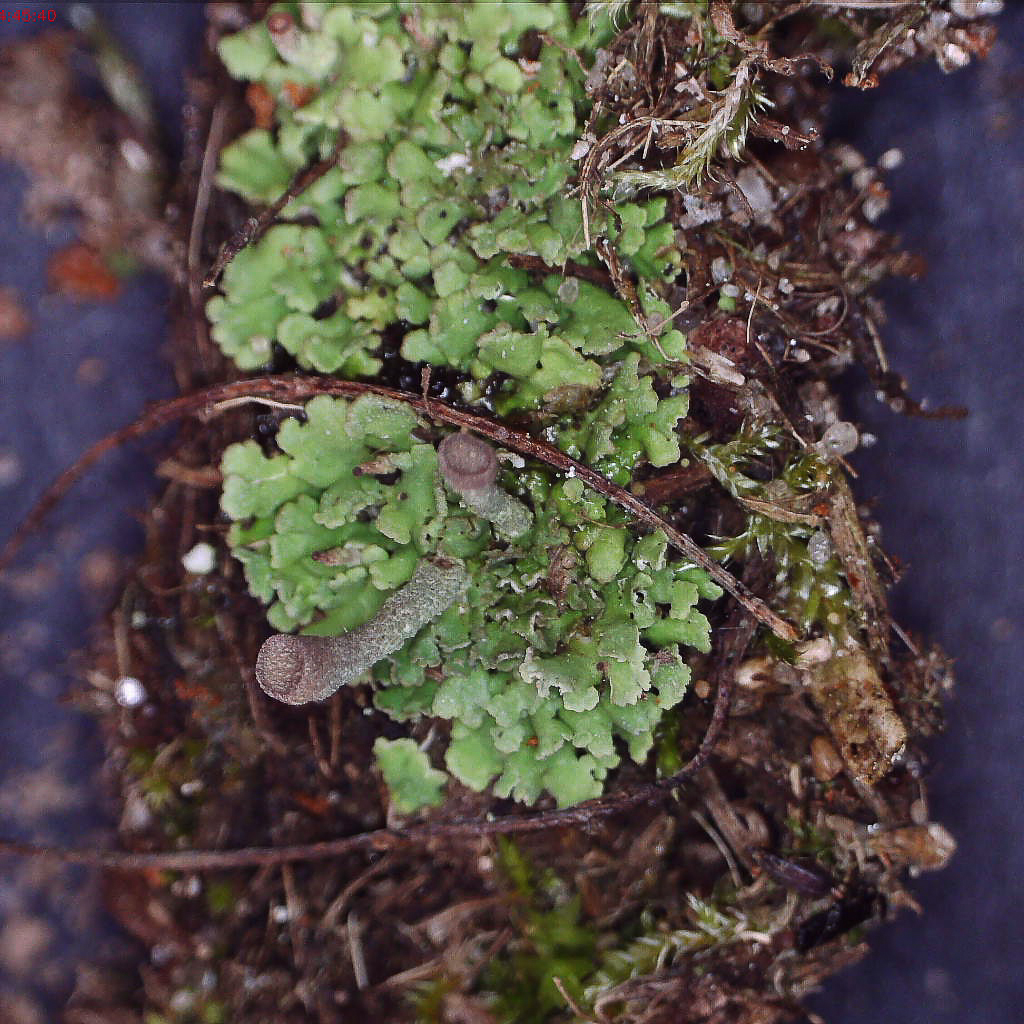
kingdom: Fungi
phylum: Ascomycota
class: Lecanoromycetes
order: Lecanorales
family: Cladoniaceae
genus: Cladonia
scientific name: Cladonia
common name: brungrøn bægerlav
